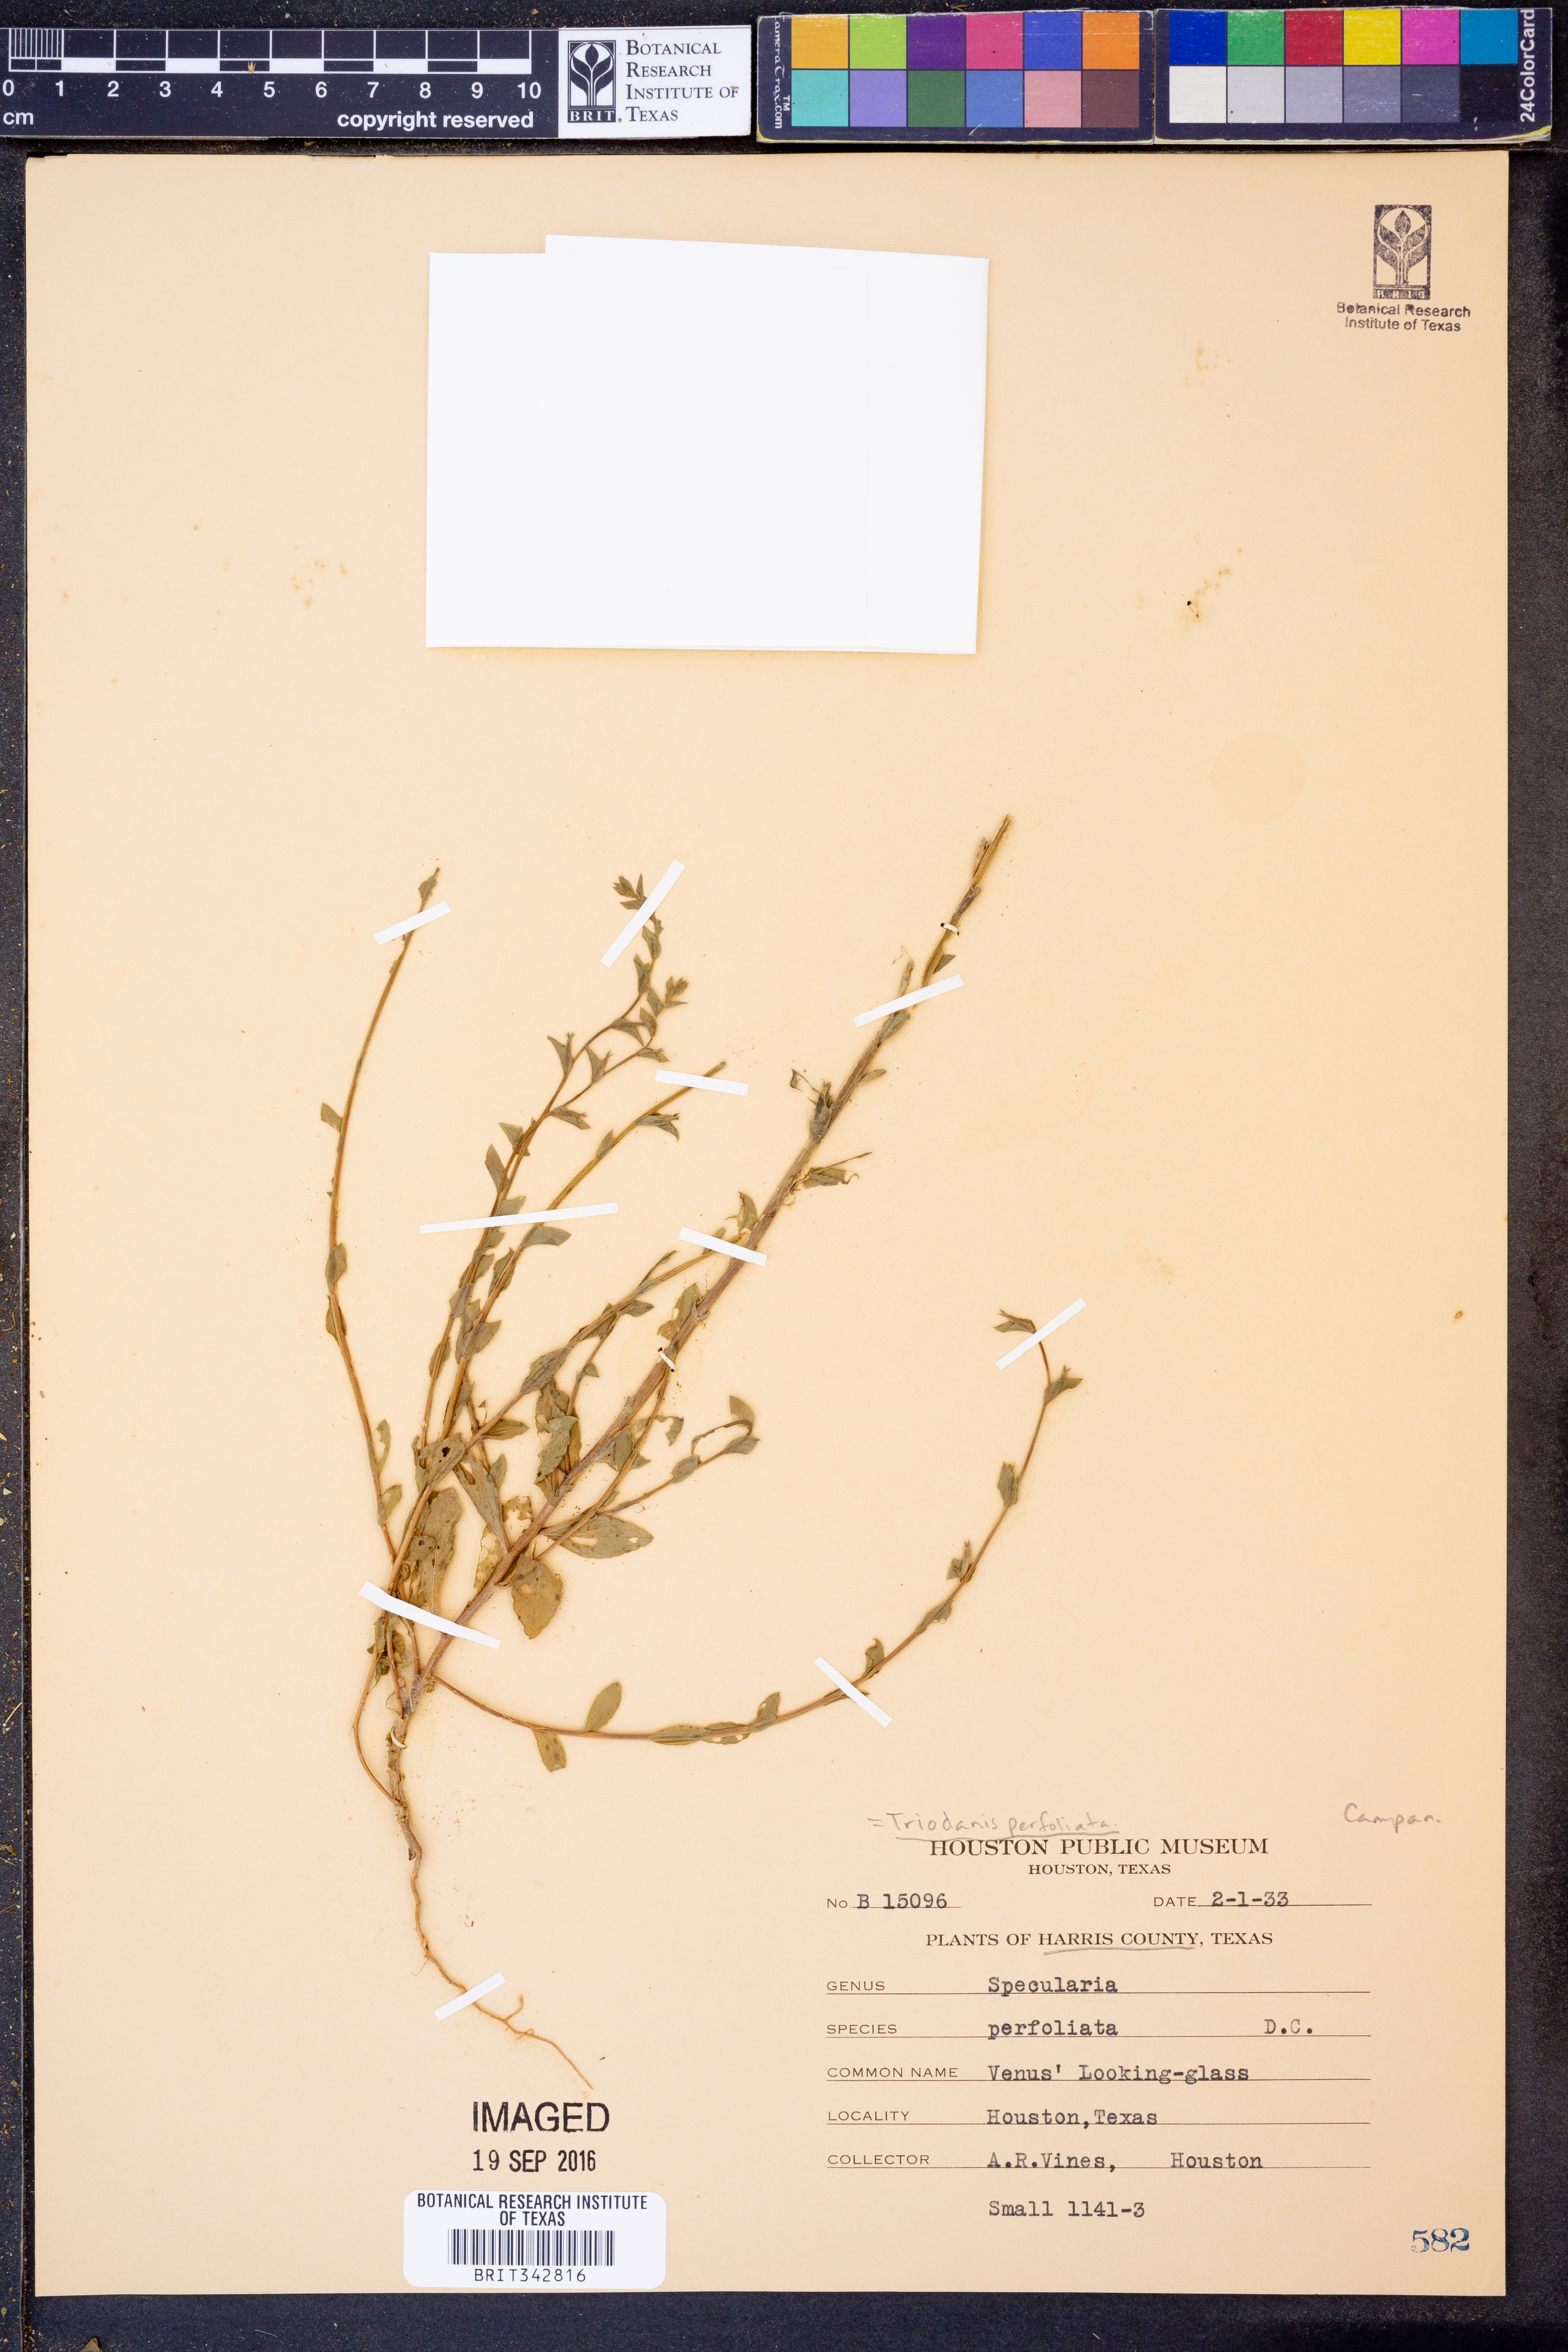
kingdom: Plantae
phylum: Tracheophyta
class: Magnoliopsida
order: Asterales
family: Campanulaceae
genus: Triodanis
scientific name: Triodanis perfoliata
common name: Clasping venus' looking-glass
